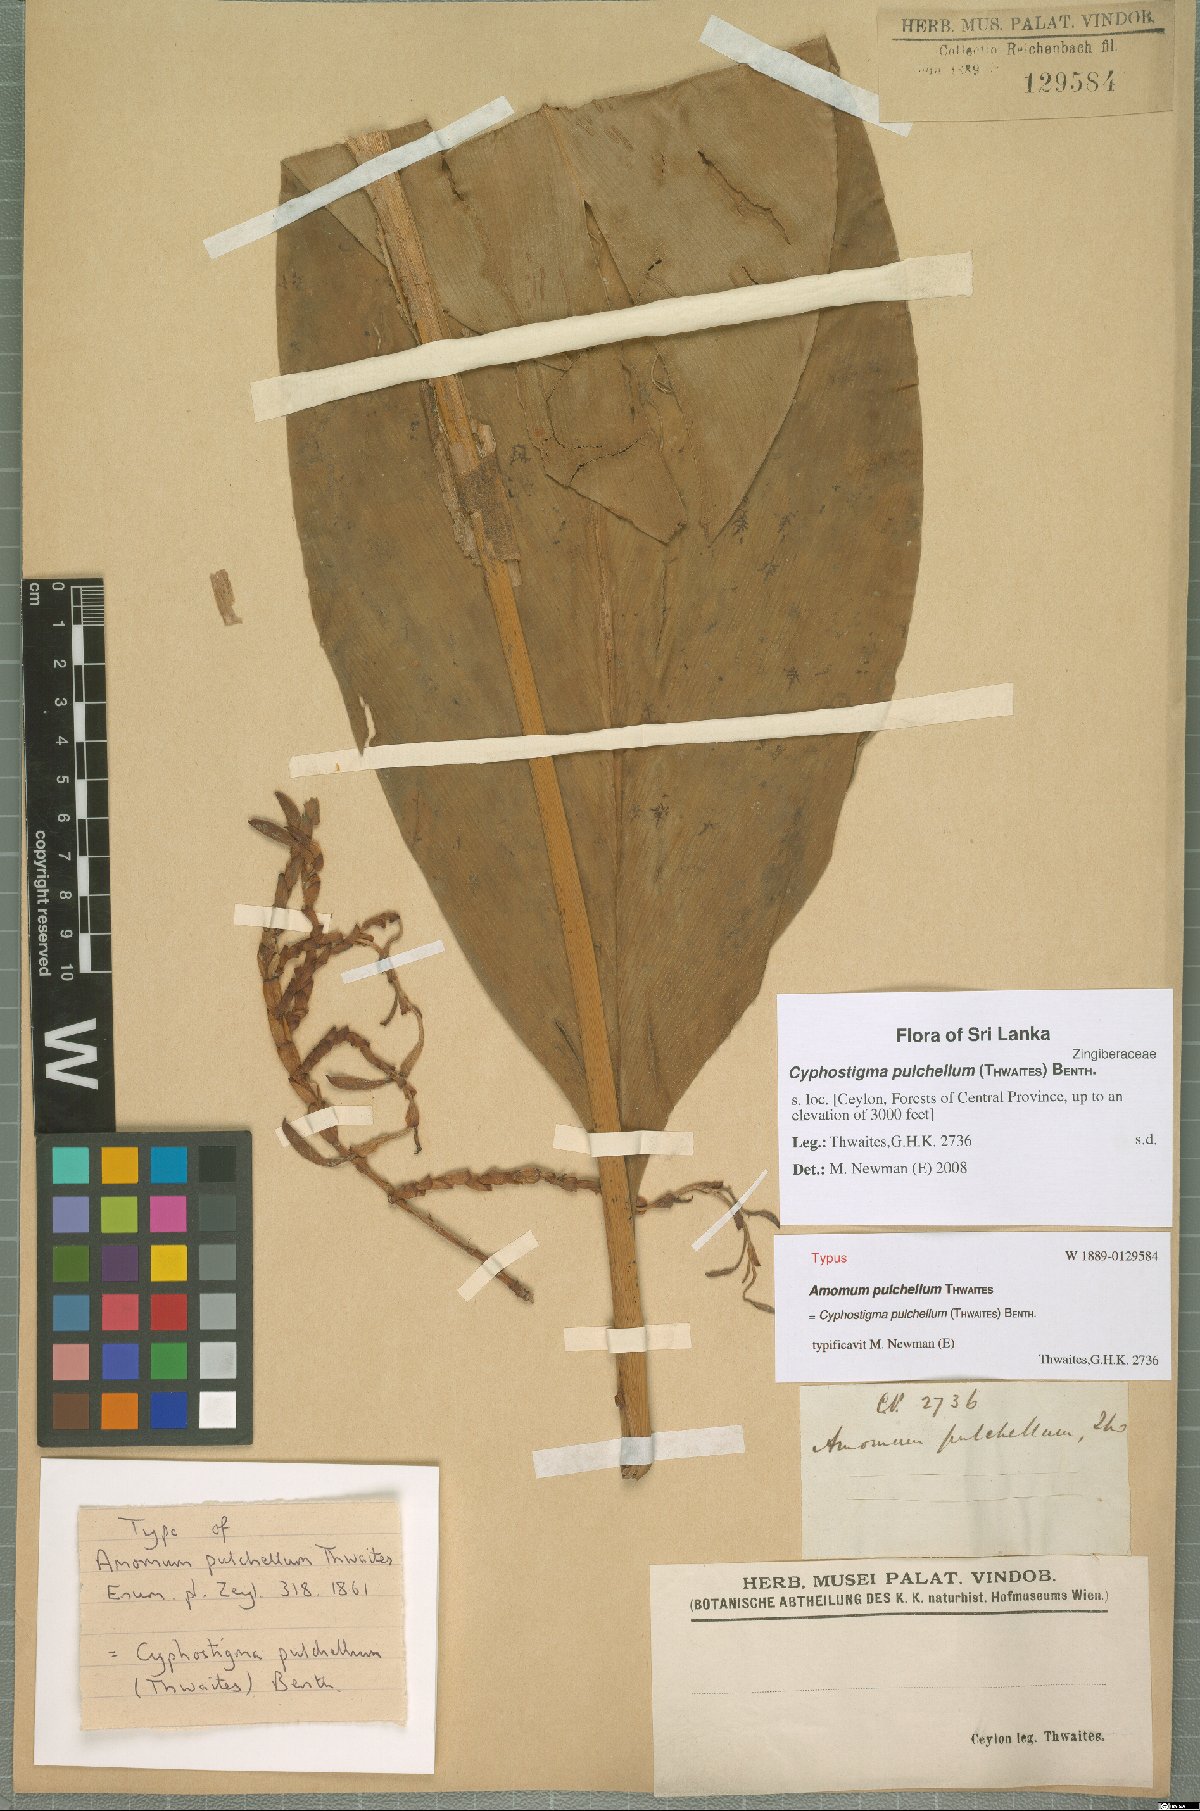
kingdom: Plantae
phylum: Tracheophyta
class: Liliopsida
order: Zingiberales
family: Zingiberaceae
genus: Cyphostigma
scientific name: Cyphostigma pulchellum
